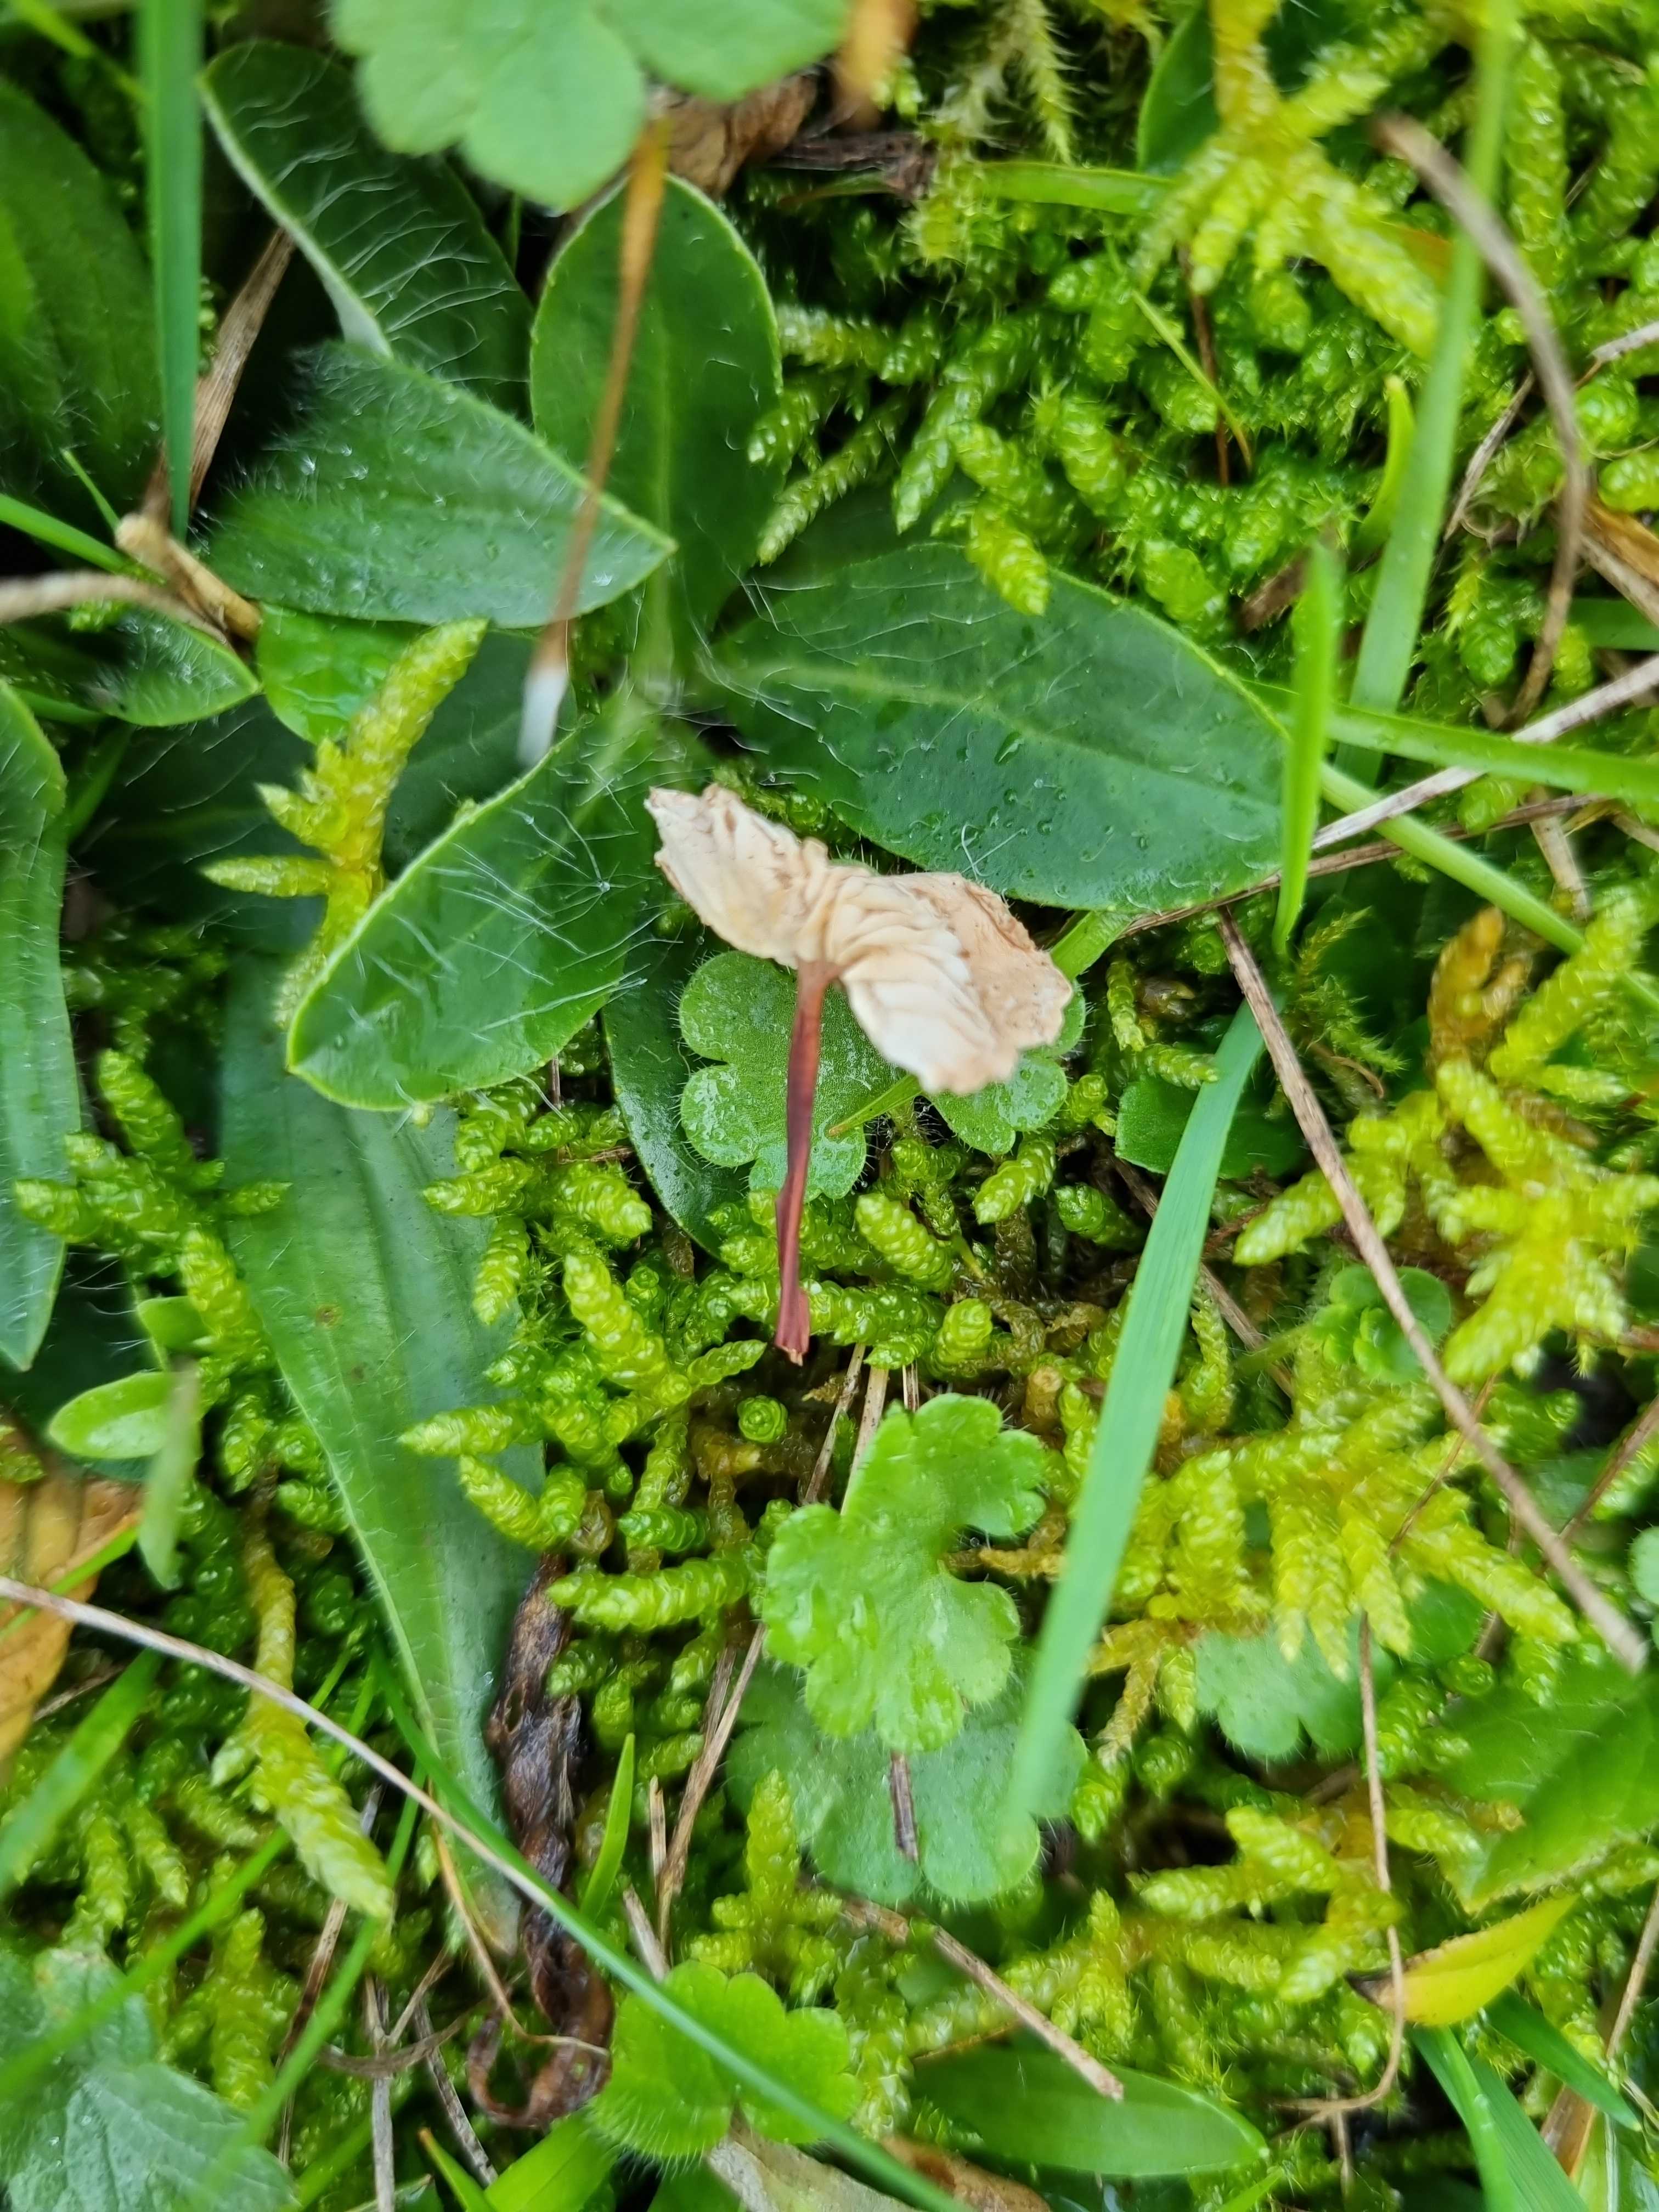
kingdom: Fungi
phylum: Basidiomycota
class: Agaricomycetes
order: Agaricales
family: Omphalotaceae
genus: Mycetinis
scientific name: Mycetinis scorodonius
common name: lille løghat
